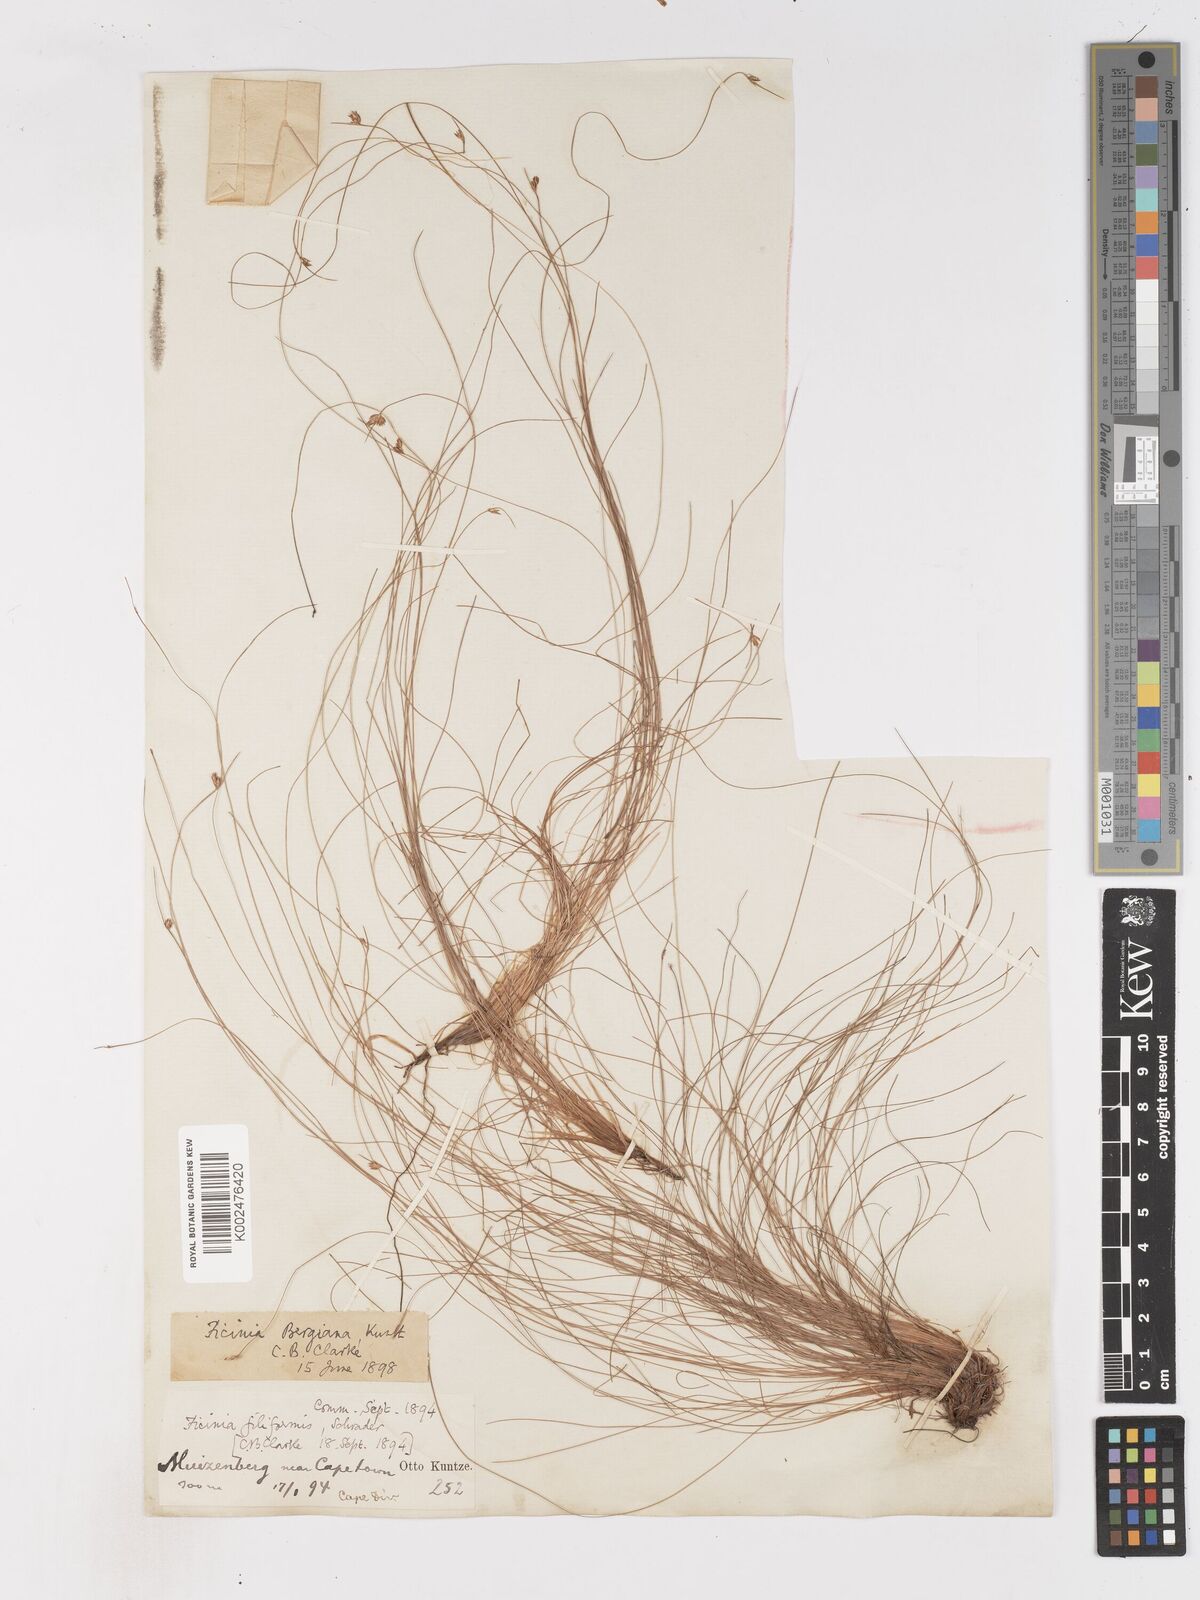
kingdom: Plantae
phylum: Tracheophyta
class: Liliopsida
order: Poales
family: Cyperaceae
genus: Ficinia
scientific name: Ficinia crinita
